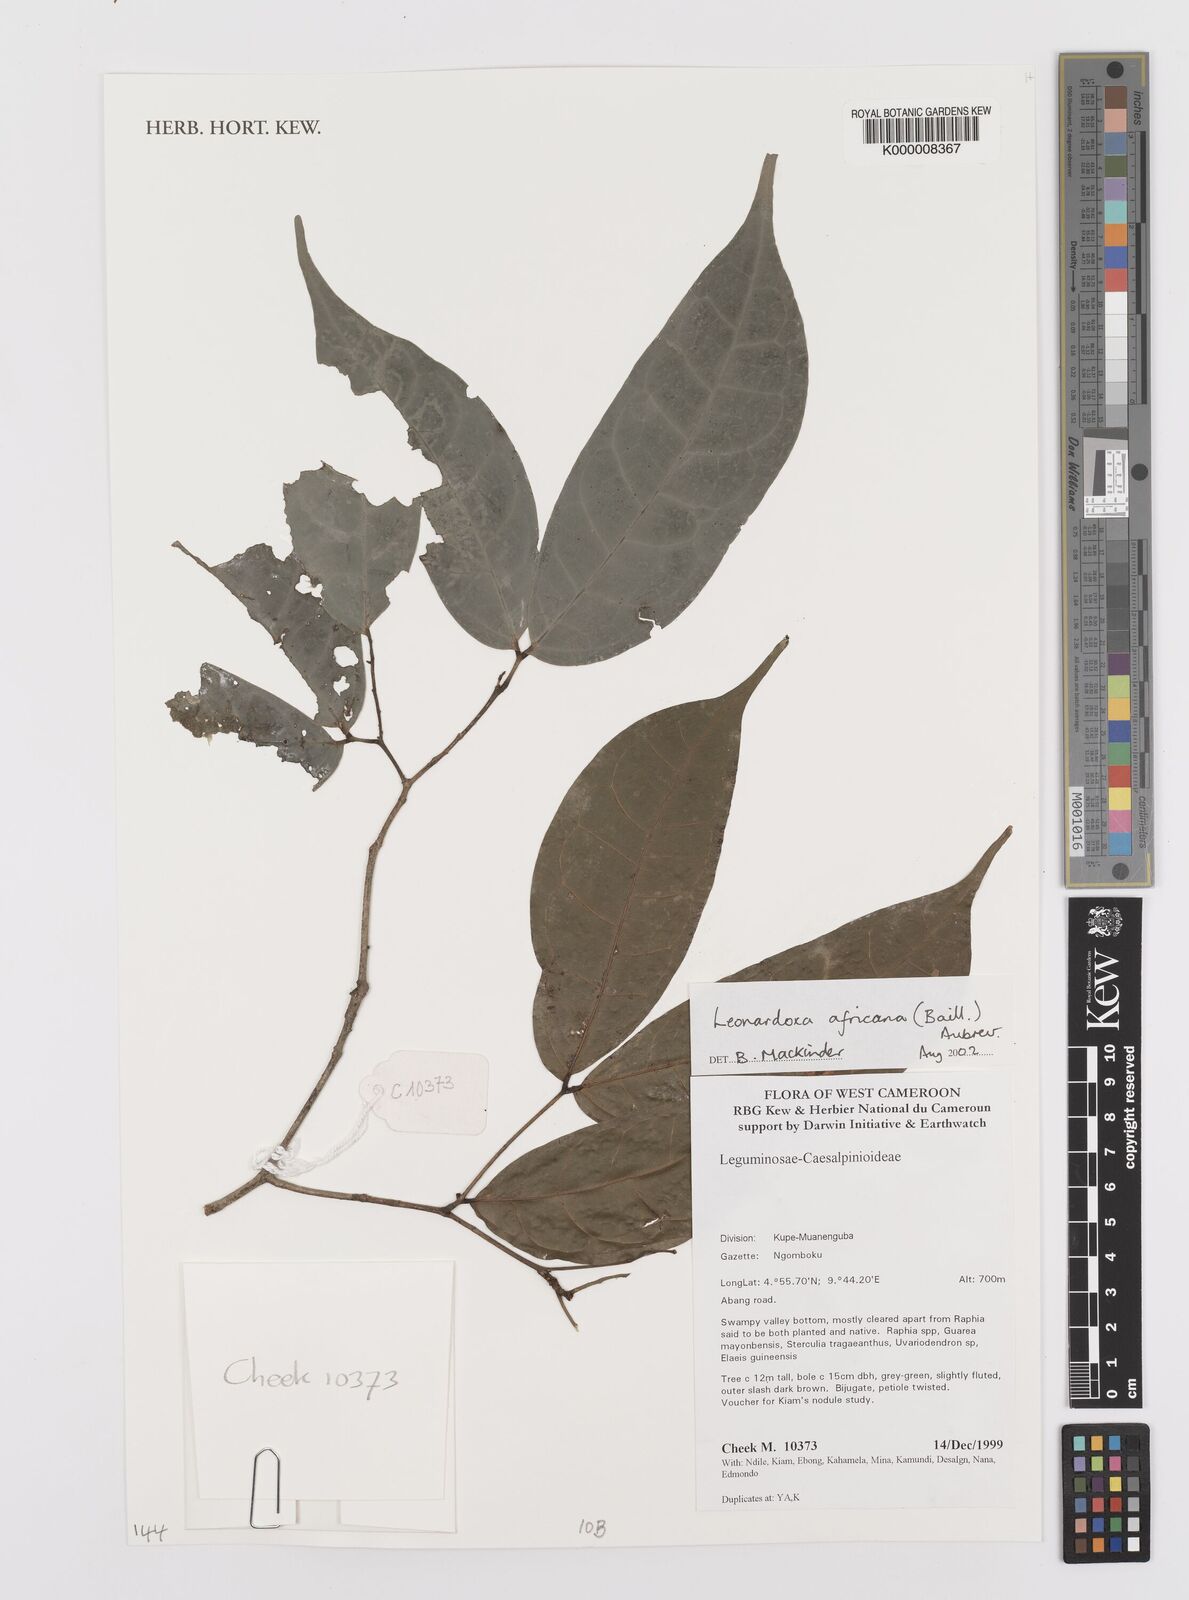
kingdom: Plantae
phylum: Tracheophyta
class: Magnoliopsida
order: Fabales
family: Fabaceae
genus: Leonardoxa
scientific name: Leonardoxa
